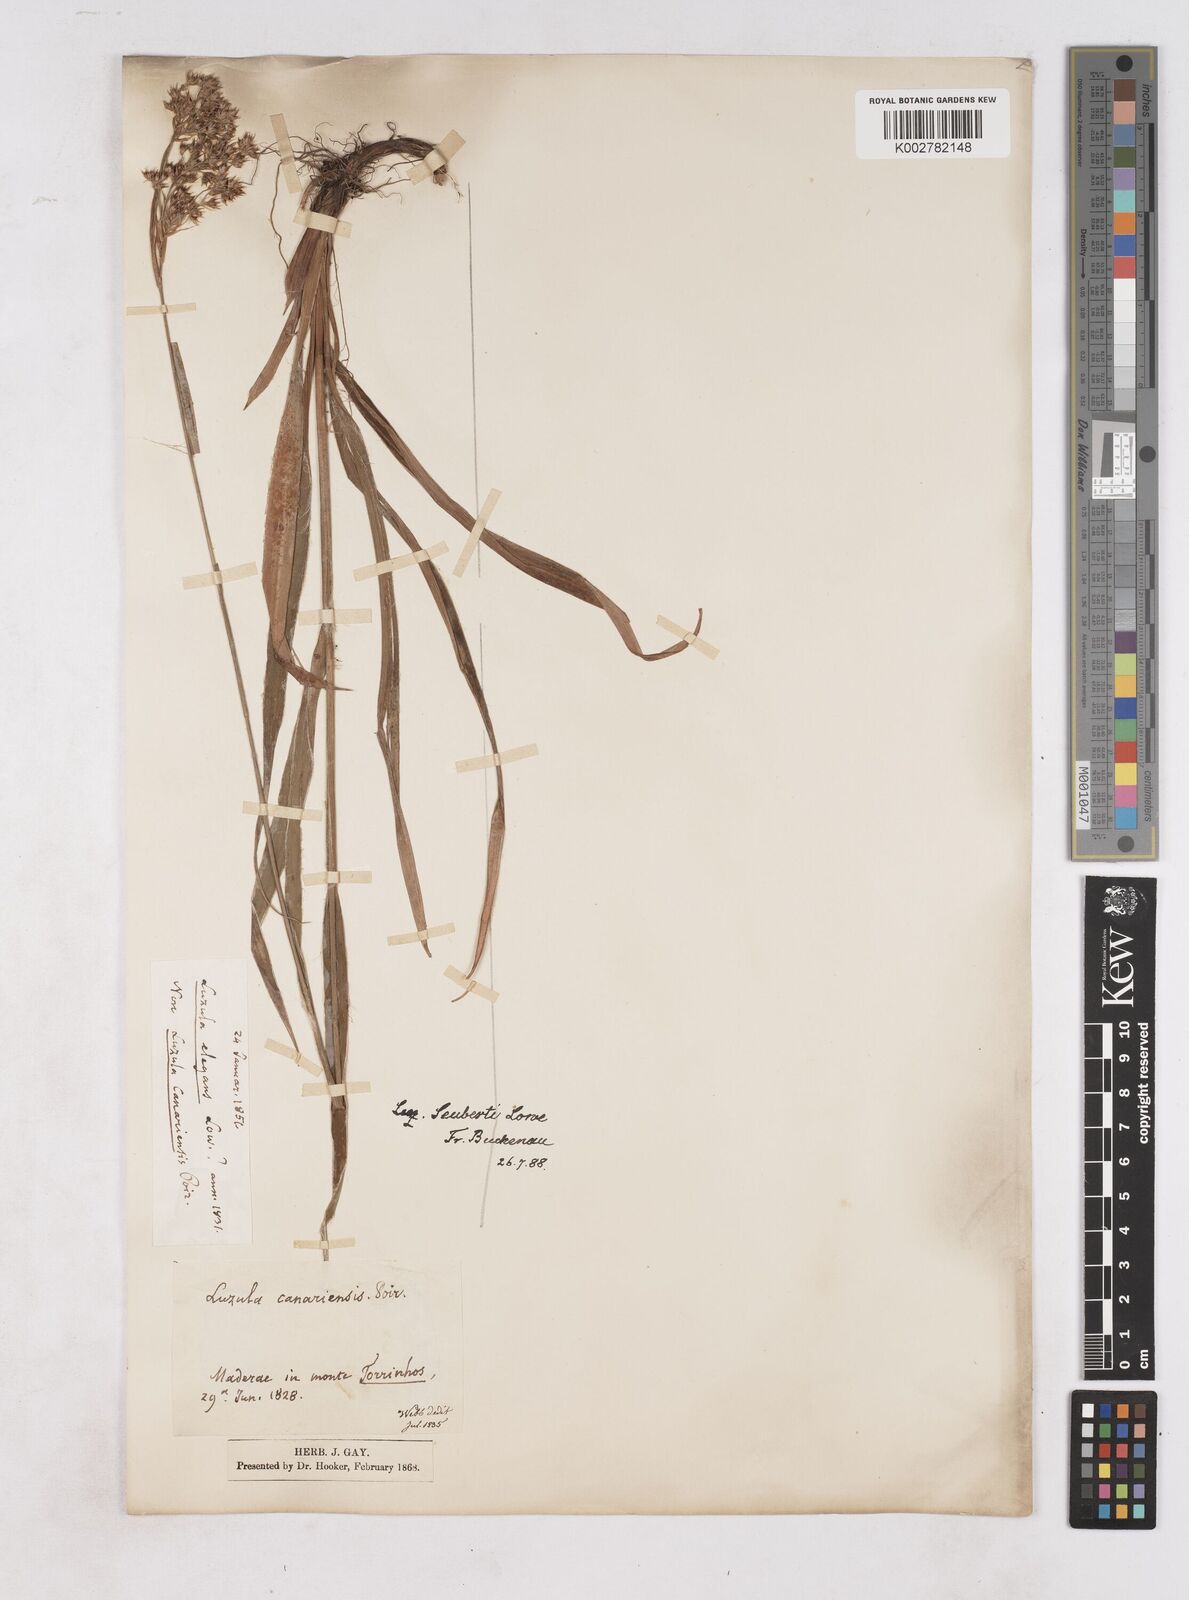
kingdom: Plantae
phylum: Tracheophyta
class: Liliopsida
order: Poales
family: Juncaceae
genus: Luzula
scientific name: Luzula seubertii
